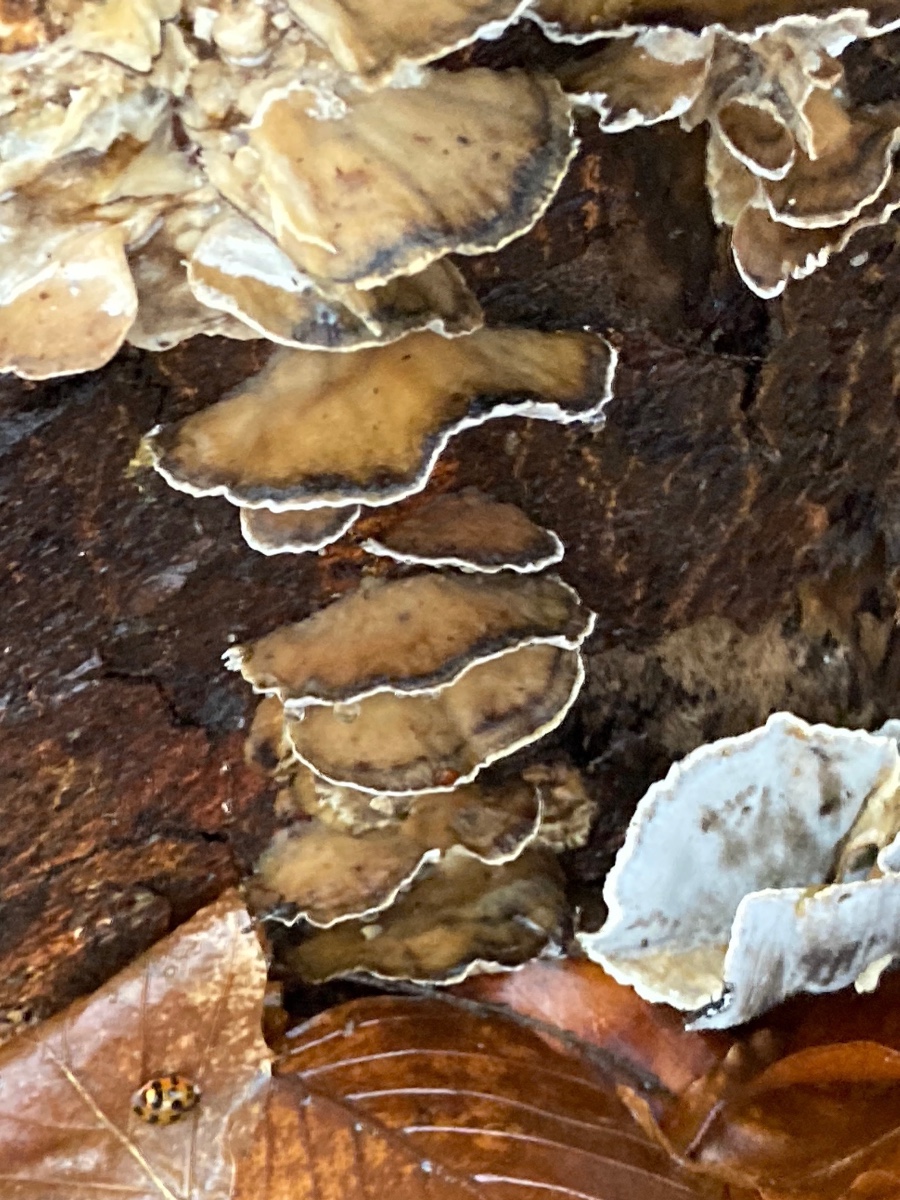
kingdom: Fungi
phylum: Basidiomycota
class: Agaricomycetes
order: Polyporales
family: Phanerochaetaceae
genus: Bjerkandera
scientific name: Bjerkandera adusta
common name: sveden sodporesvamp
